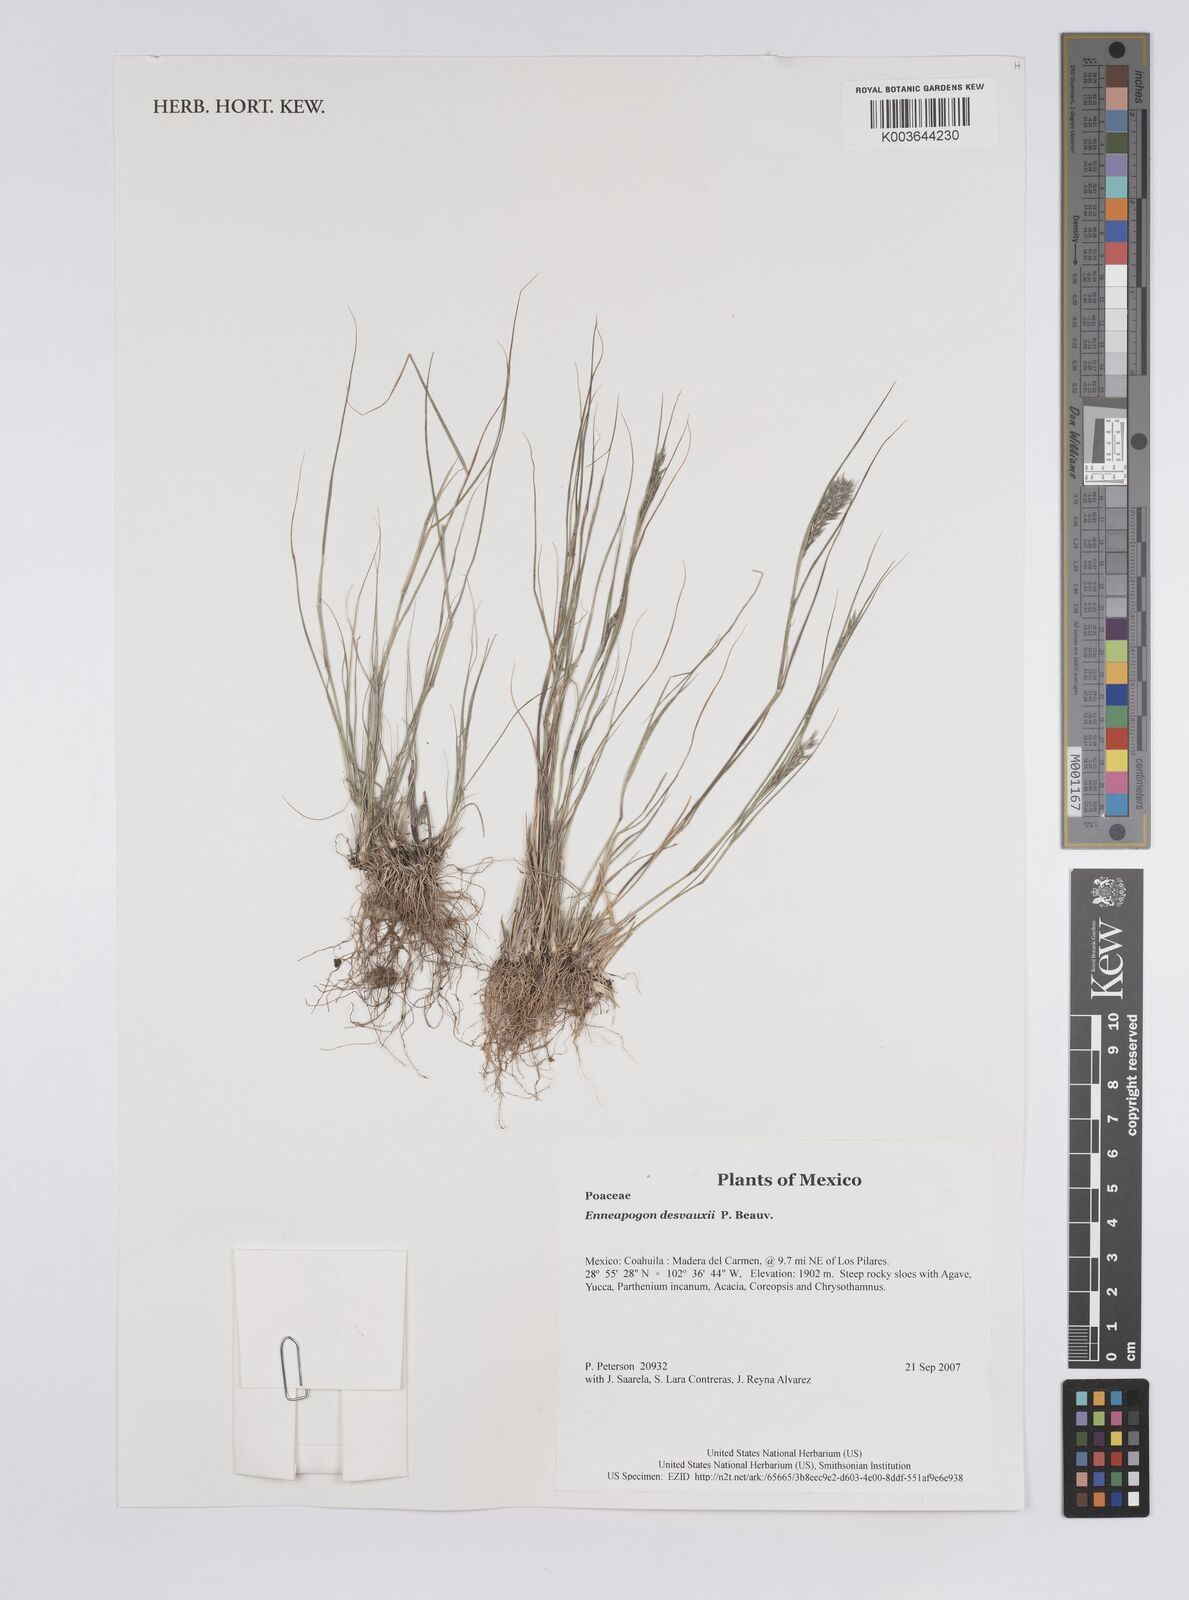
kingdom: Plantae
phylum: Tracheophyta
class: Liliopsida
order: Poales
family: Poaceae
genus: Enneapogon
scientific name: Enneapogon desvauxii
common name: Feather pappus grass
